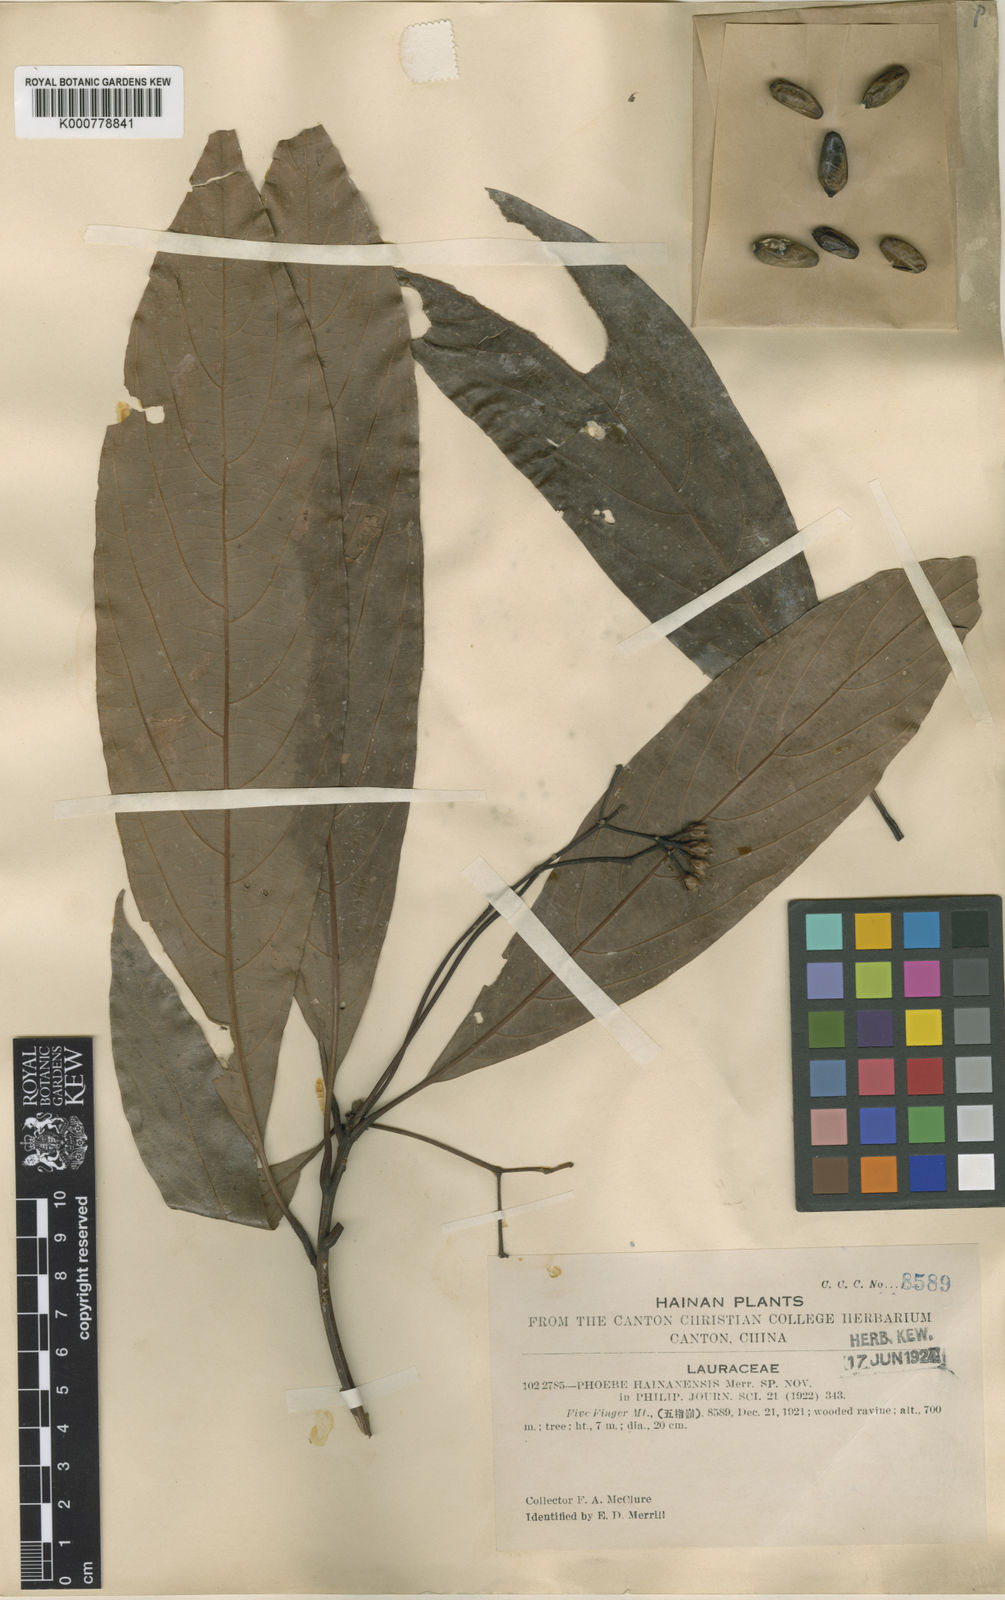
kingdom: Plantae
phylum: Tracheophyta
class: Magnoliopsida
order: Laurales
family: Lauraceae
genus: Phoebe
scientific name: Phoebe hainanensis
